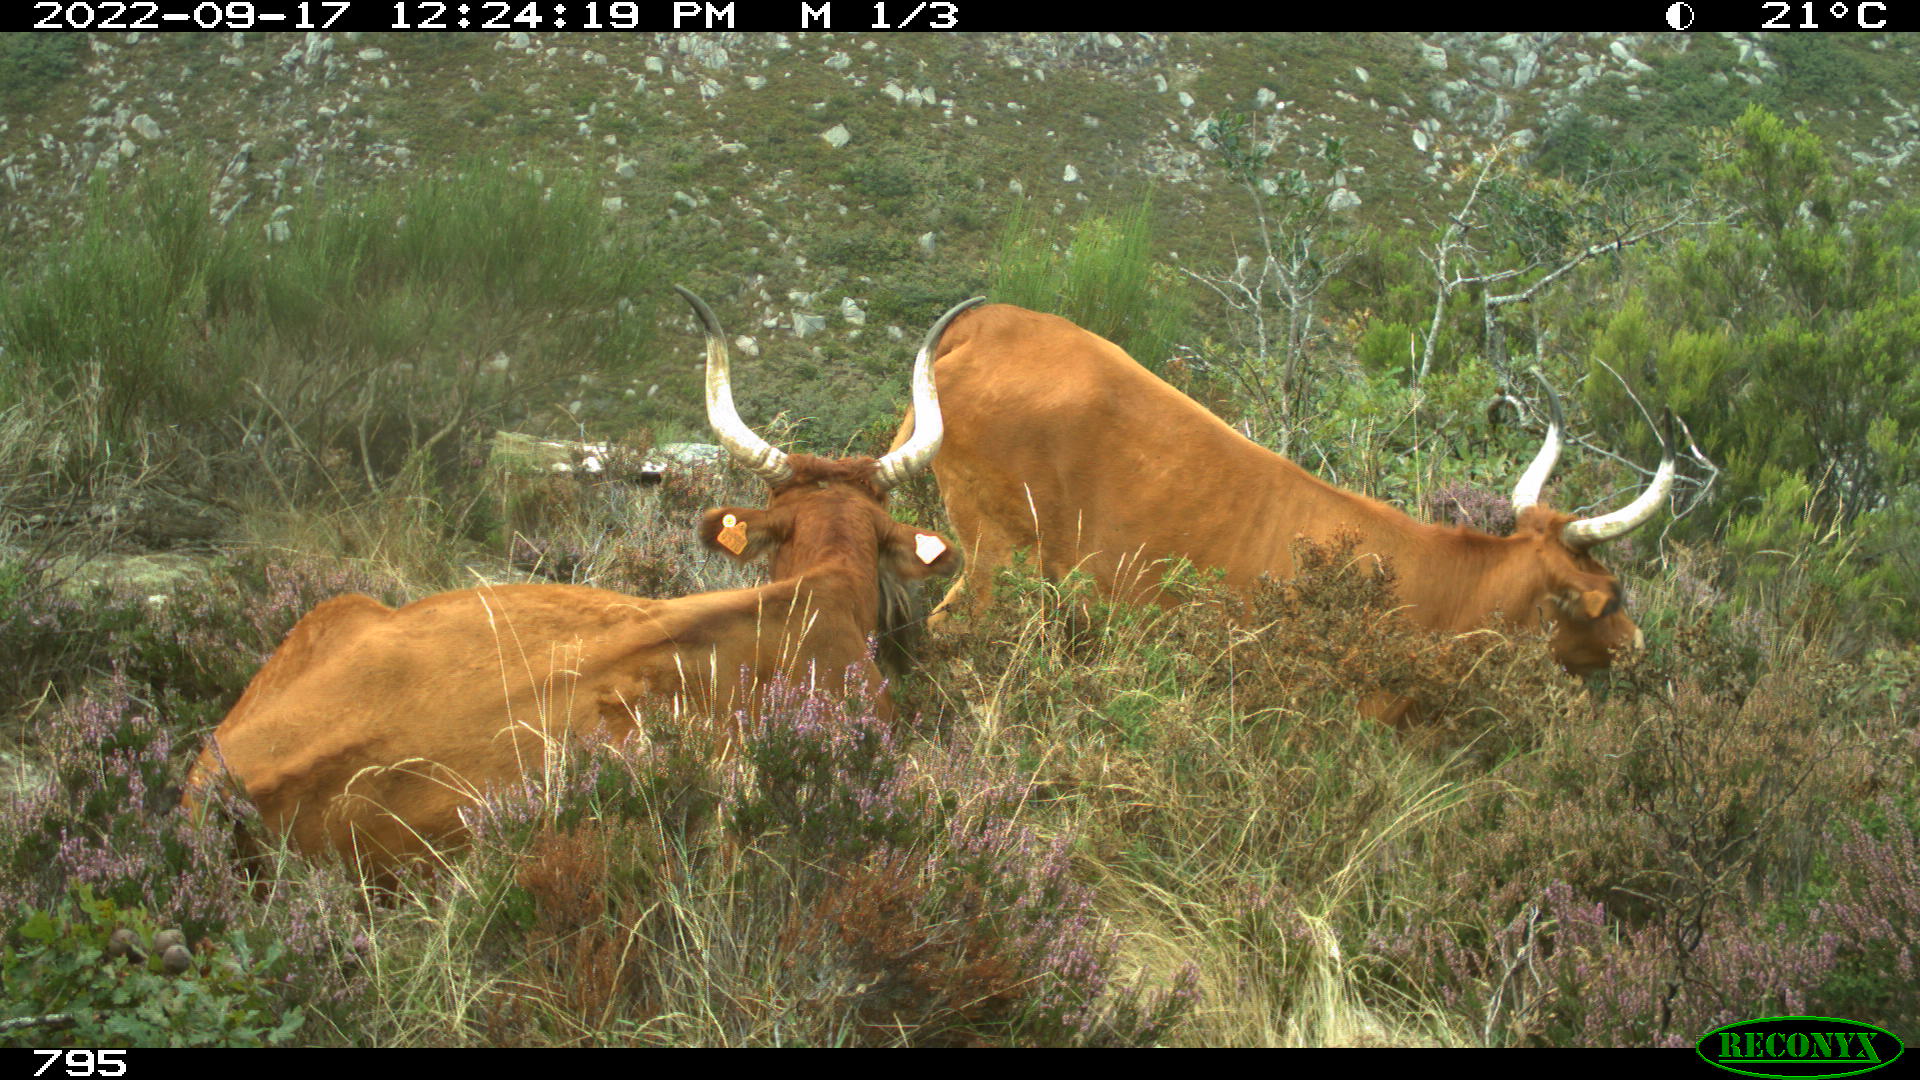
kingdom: Animalia
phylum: Chordata
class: Mammalia
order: Artiodactyla
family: Bovidae
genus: Bos
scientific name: Bos taurus
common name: Domesticated cattle
